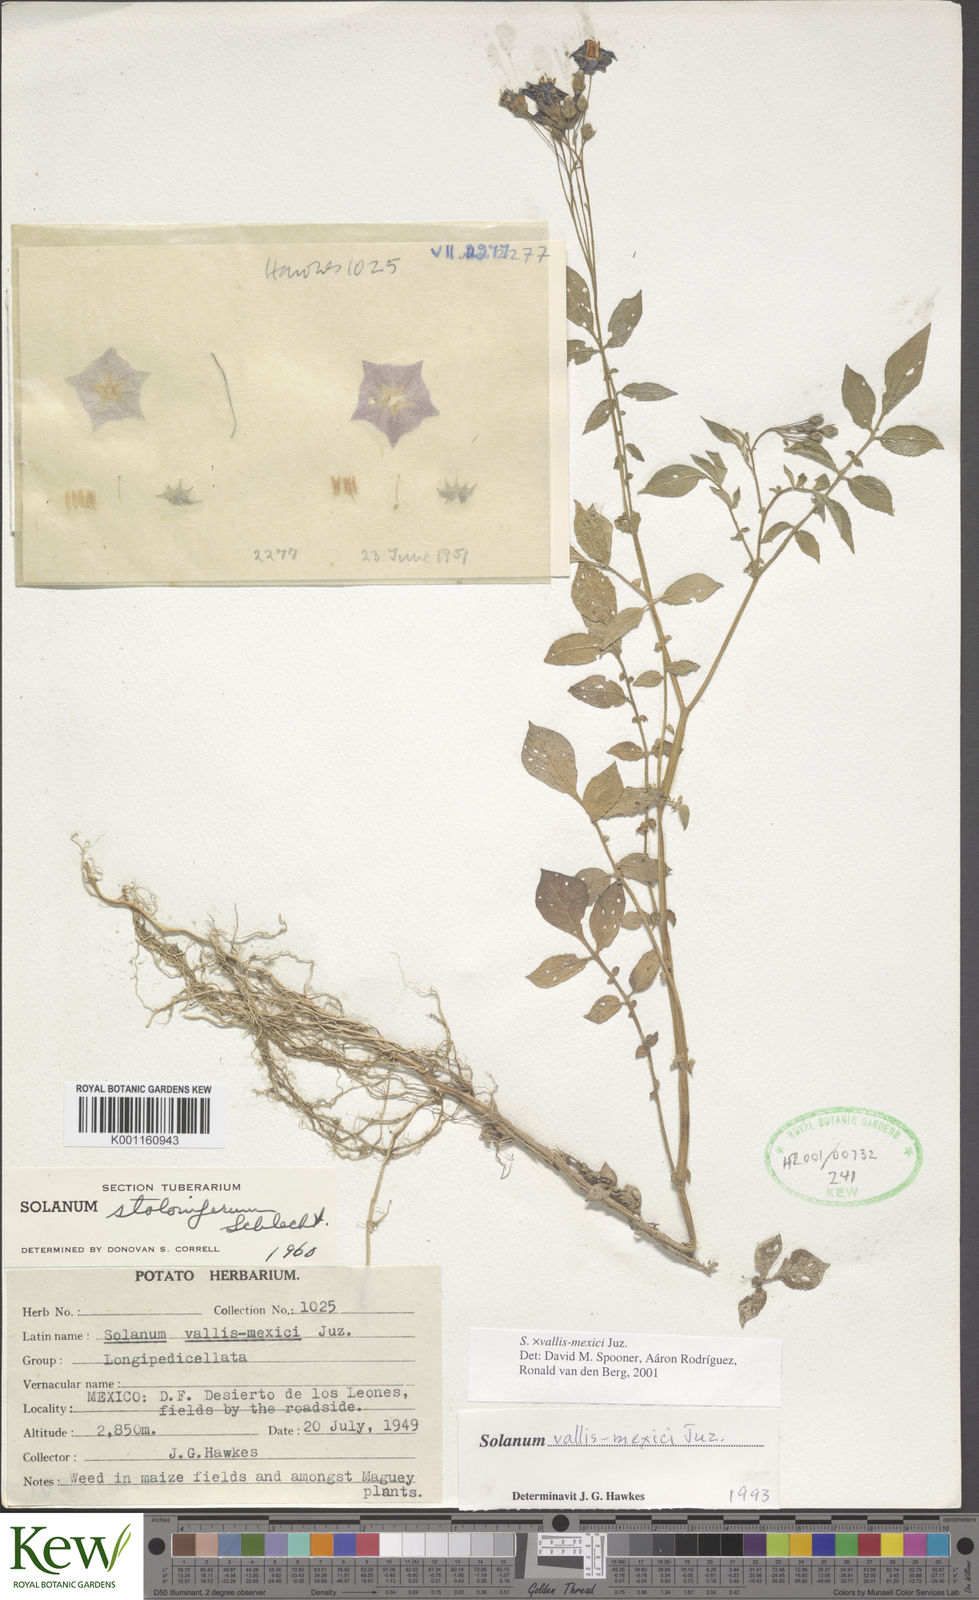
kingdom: Plantae
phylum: Tracheophyta
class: Magnoliopsida
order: Solanales
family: Solanaceae
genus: Solanum
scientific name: Solanum vallis-mexici
